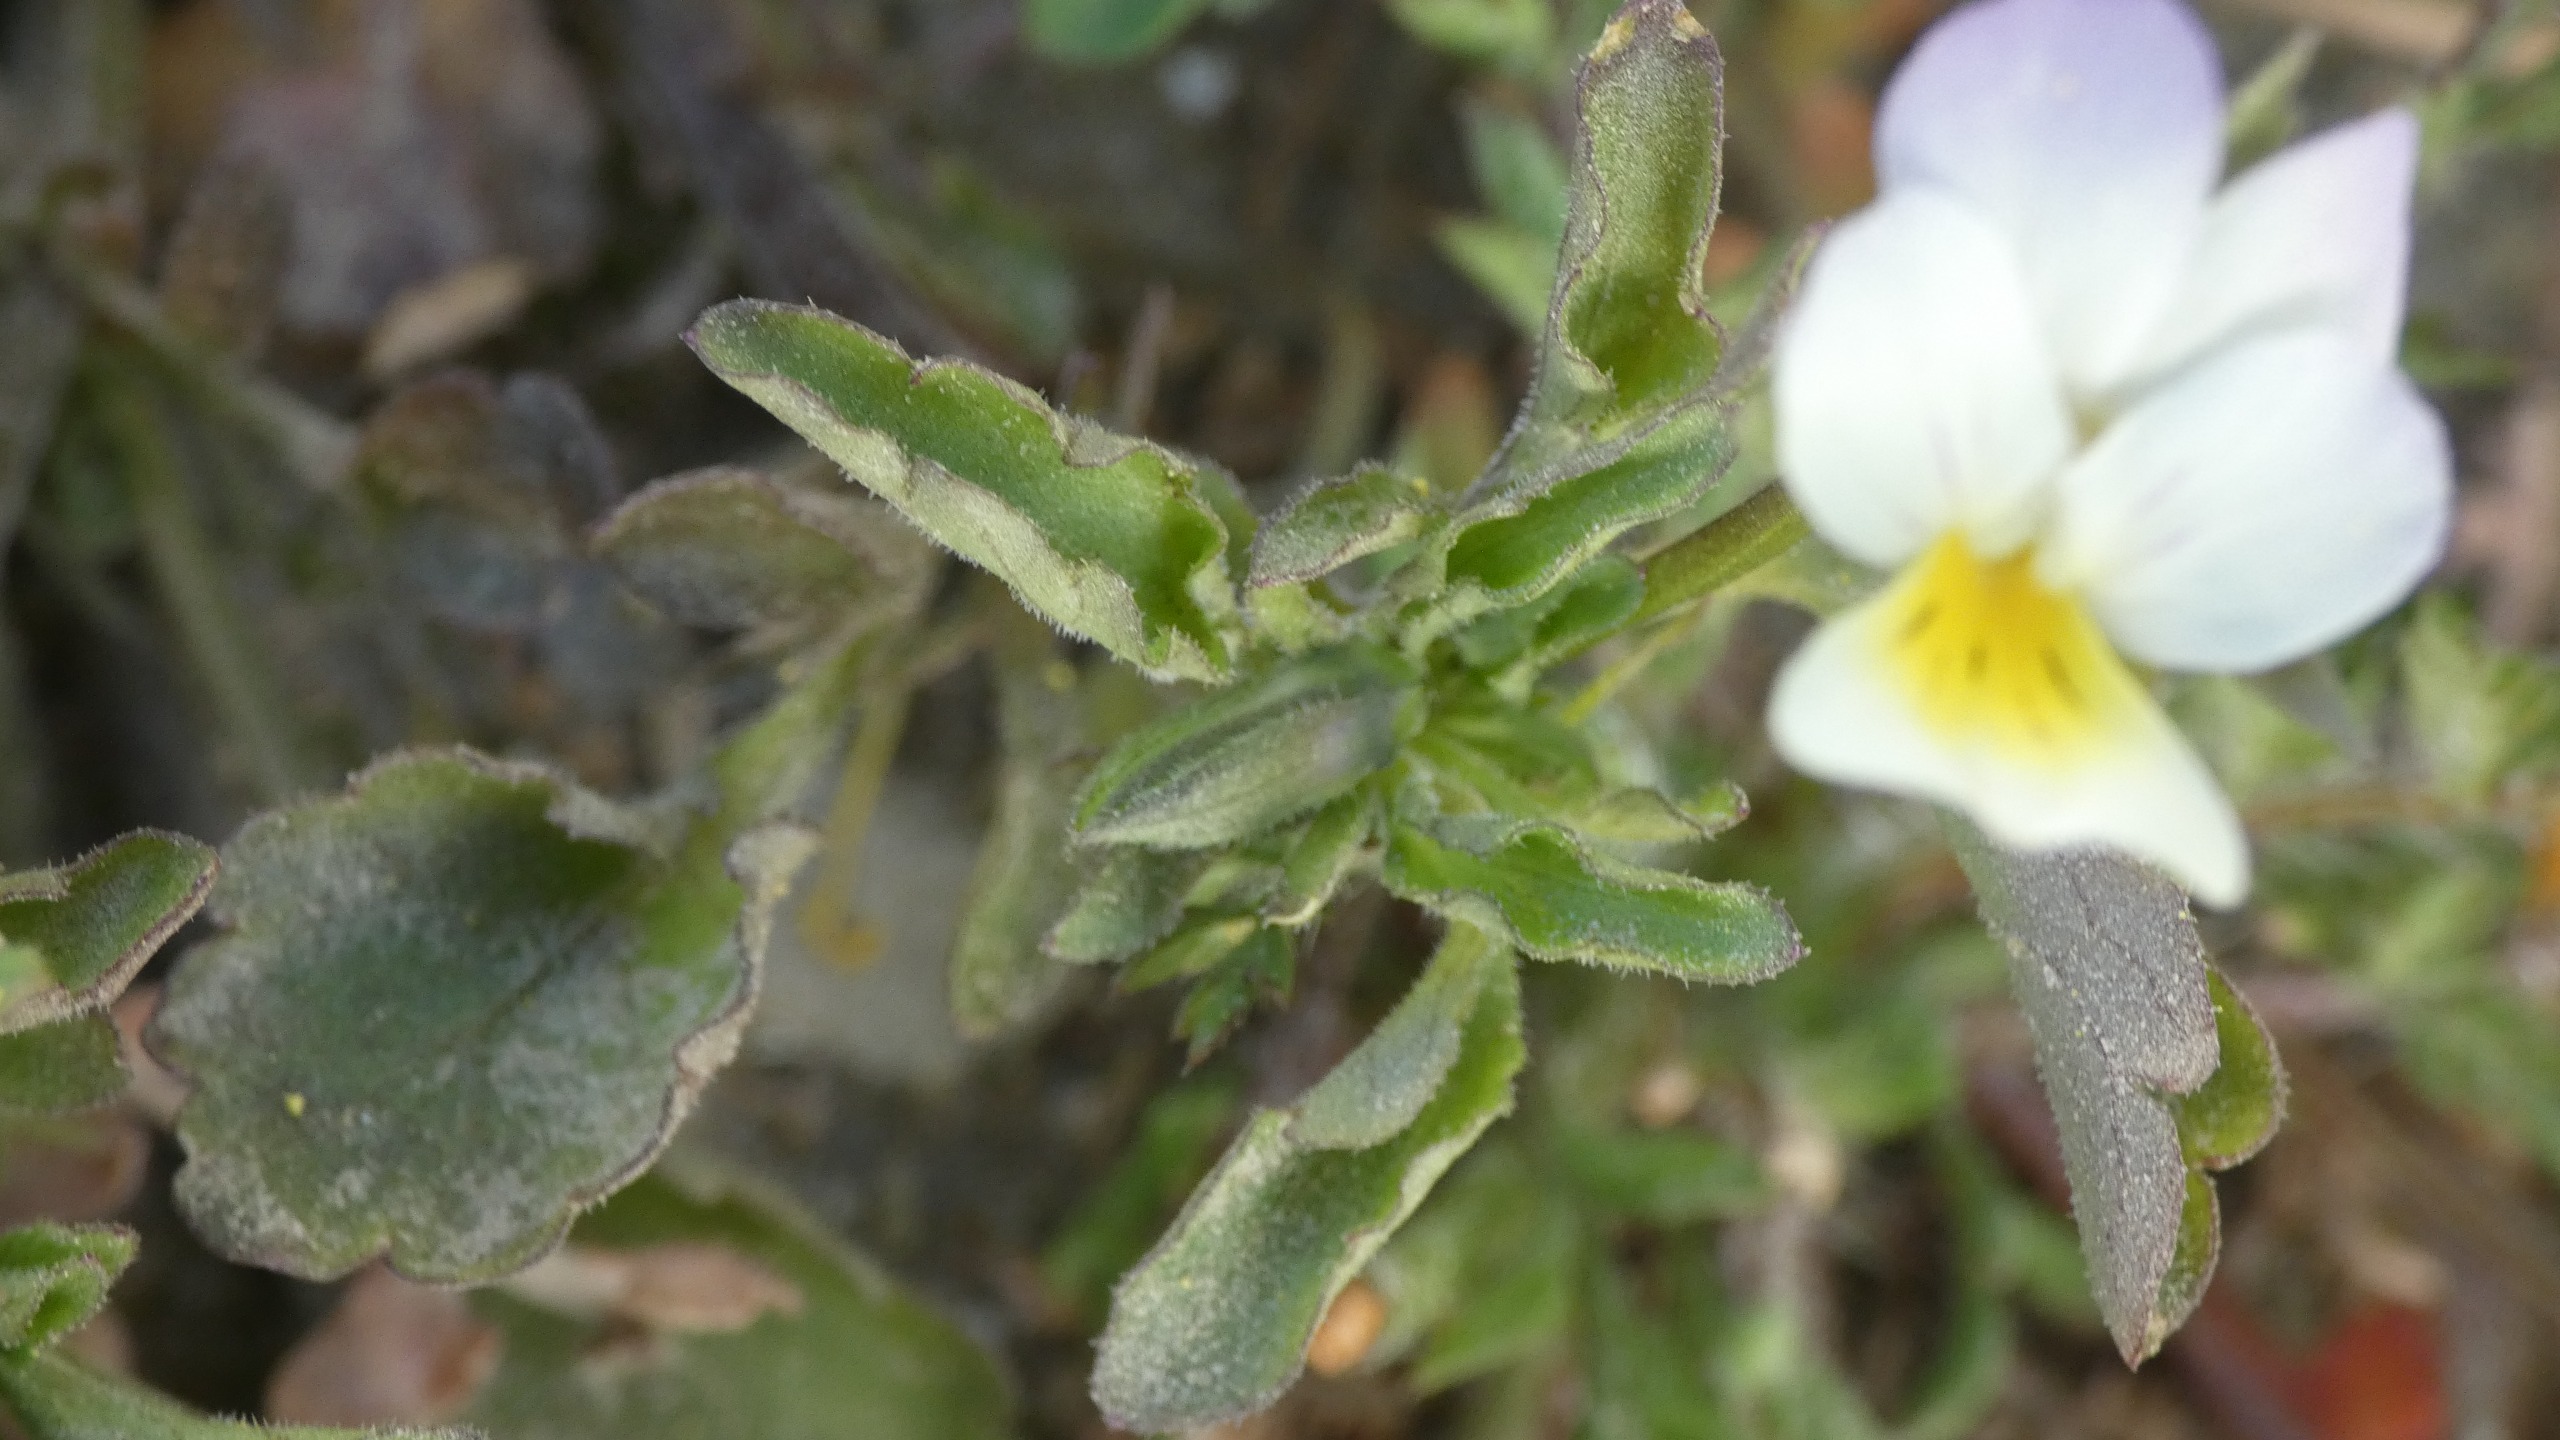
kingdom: Plantae
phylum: Tracheophyta
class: Magnoliopsida
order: Malpighiales
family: Violaceae
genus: Viola
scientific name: Viola arvensis
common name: Ager-stedmoderblomst
